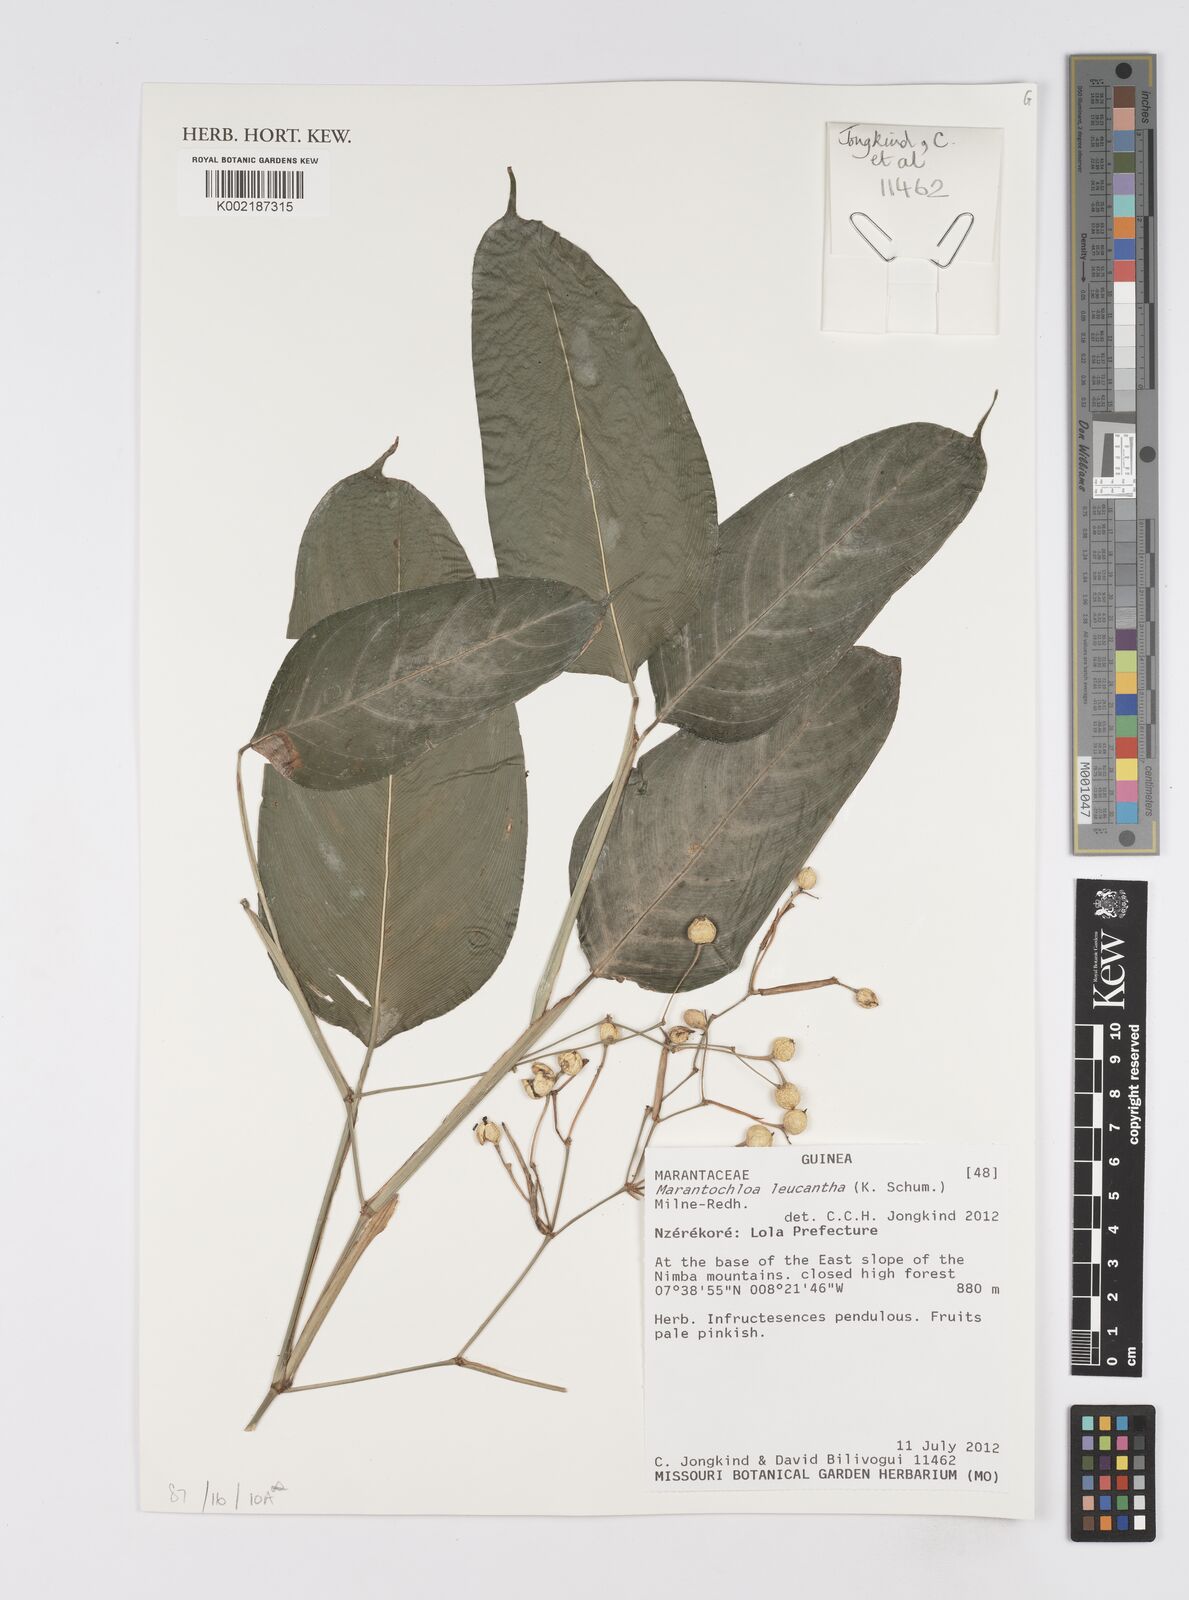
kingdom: Plantae
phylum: Tracheophyta
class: Liliopsida
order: Zingiberales
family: Marantaceae
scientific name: Marantaceae
